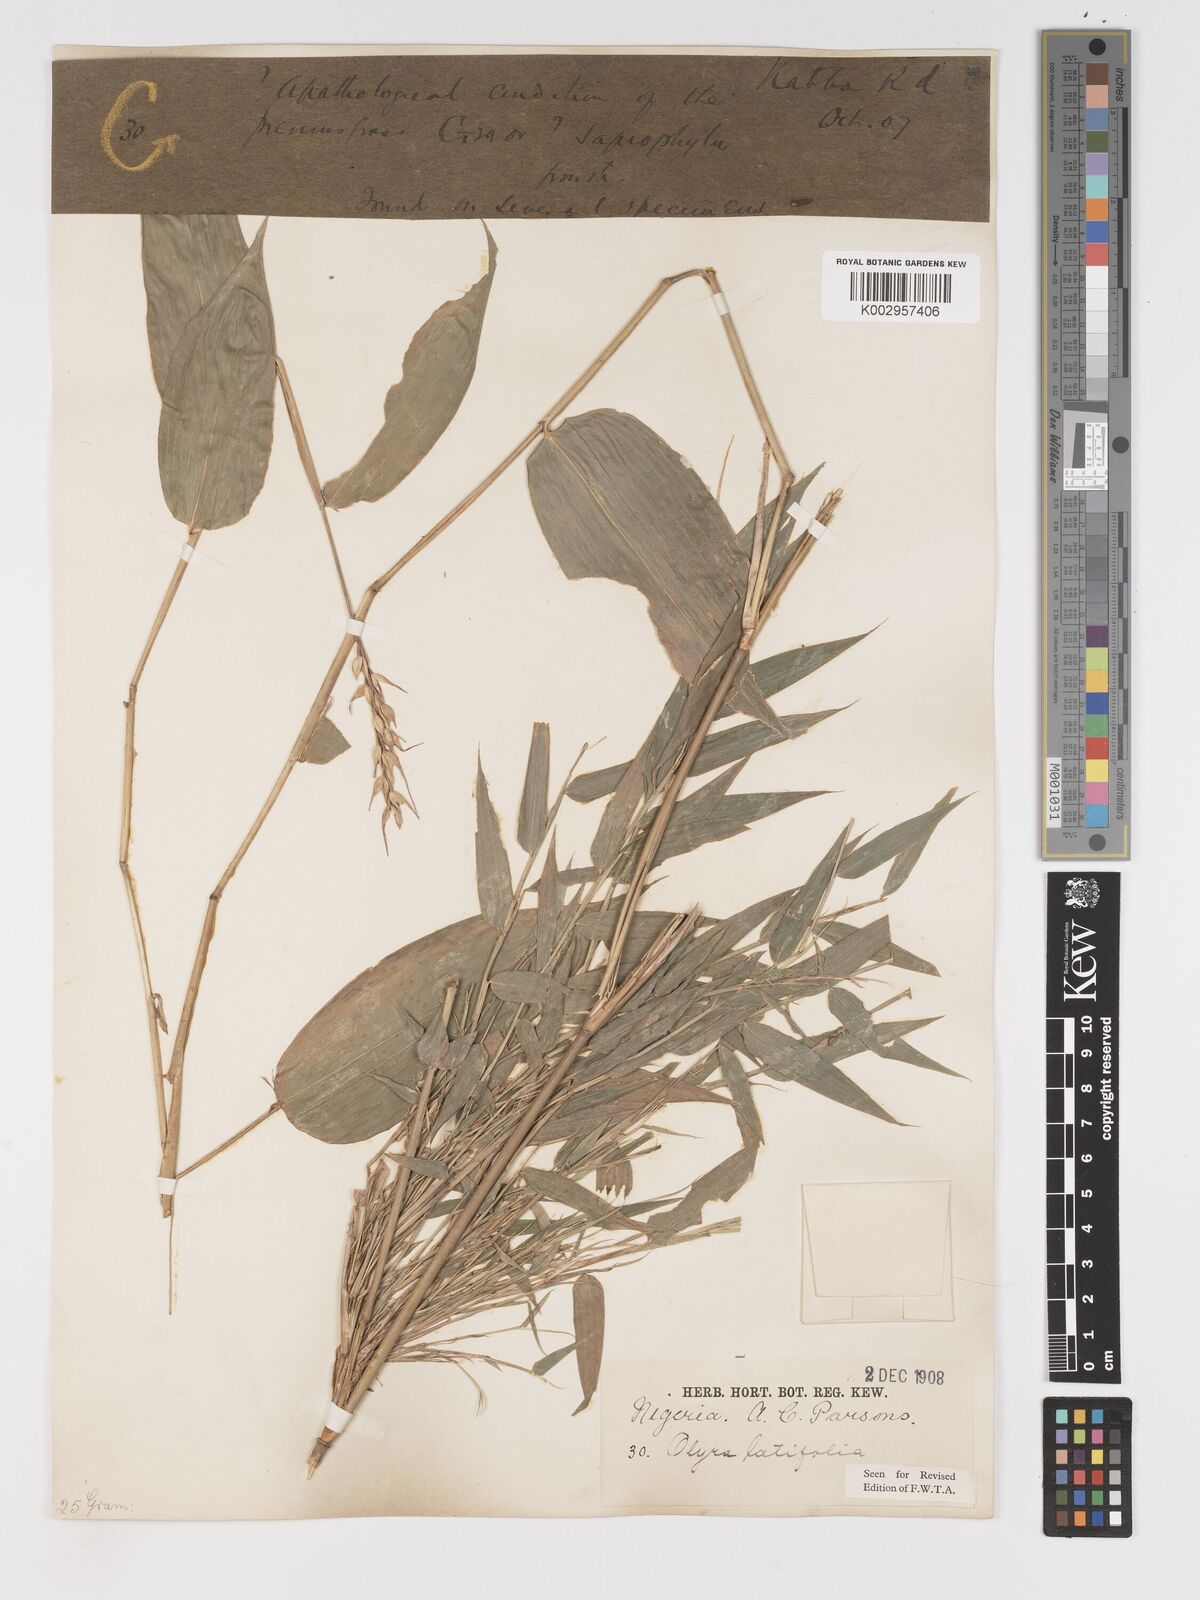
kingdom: Plantae
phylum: Tracheophyta
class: Liliopsida
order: Poales
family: Poaceae
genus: Olyra
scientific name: Olyra latifolia
